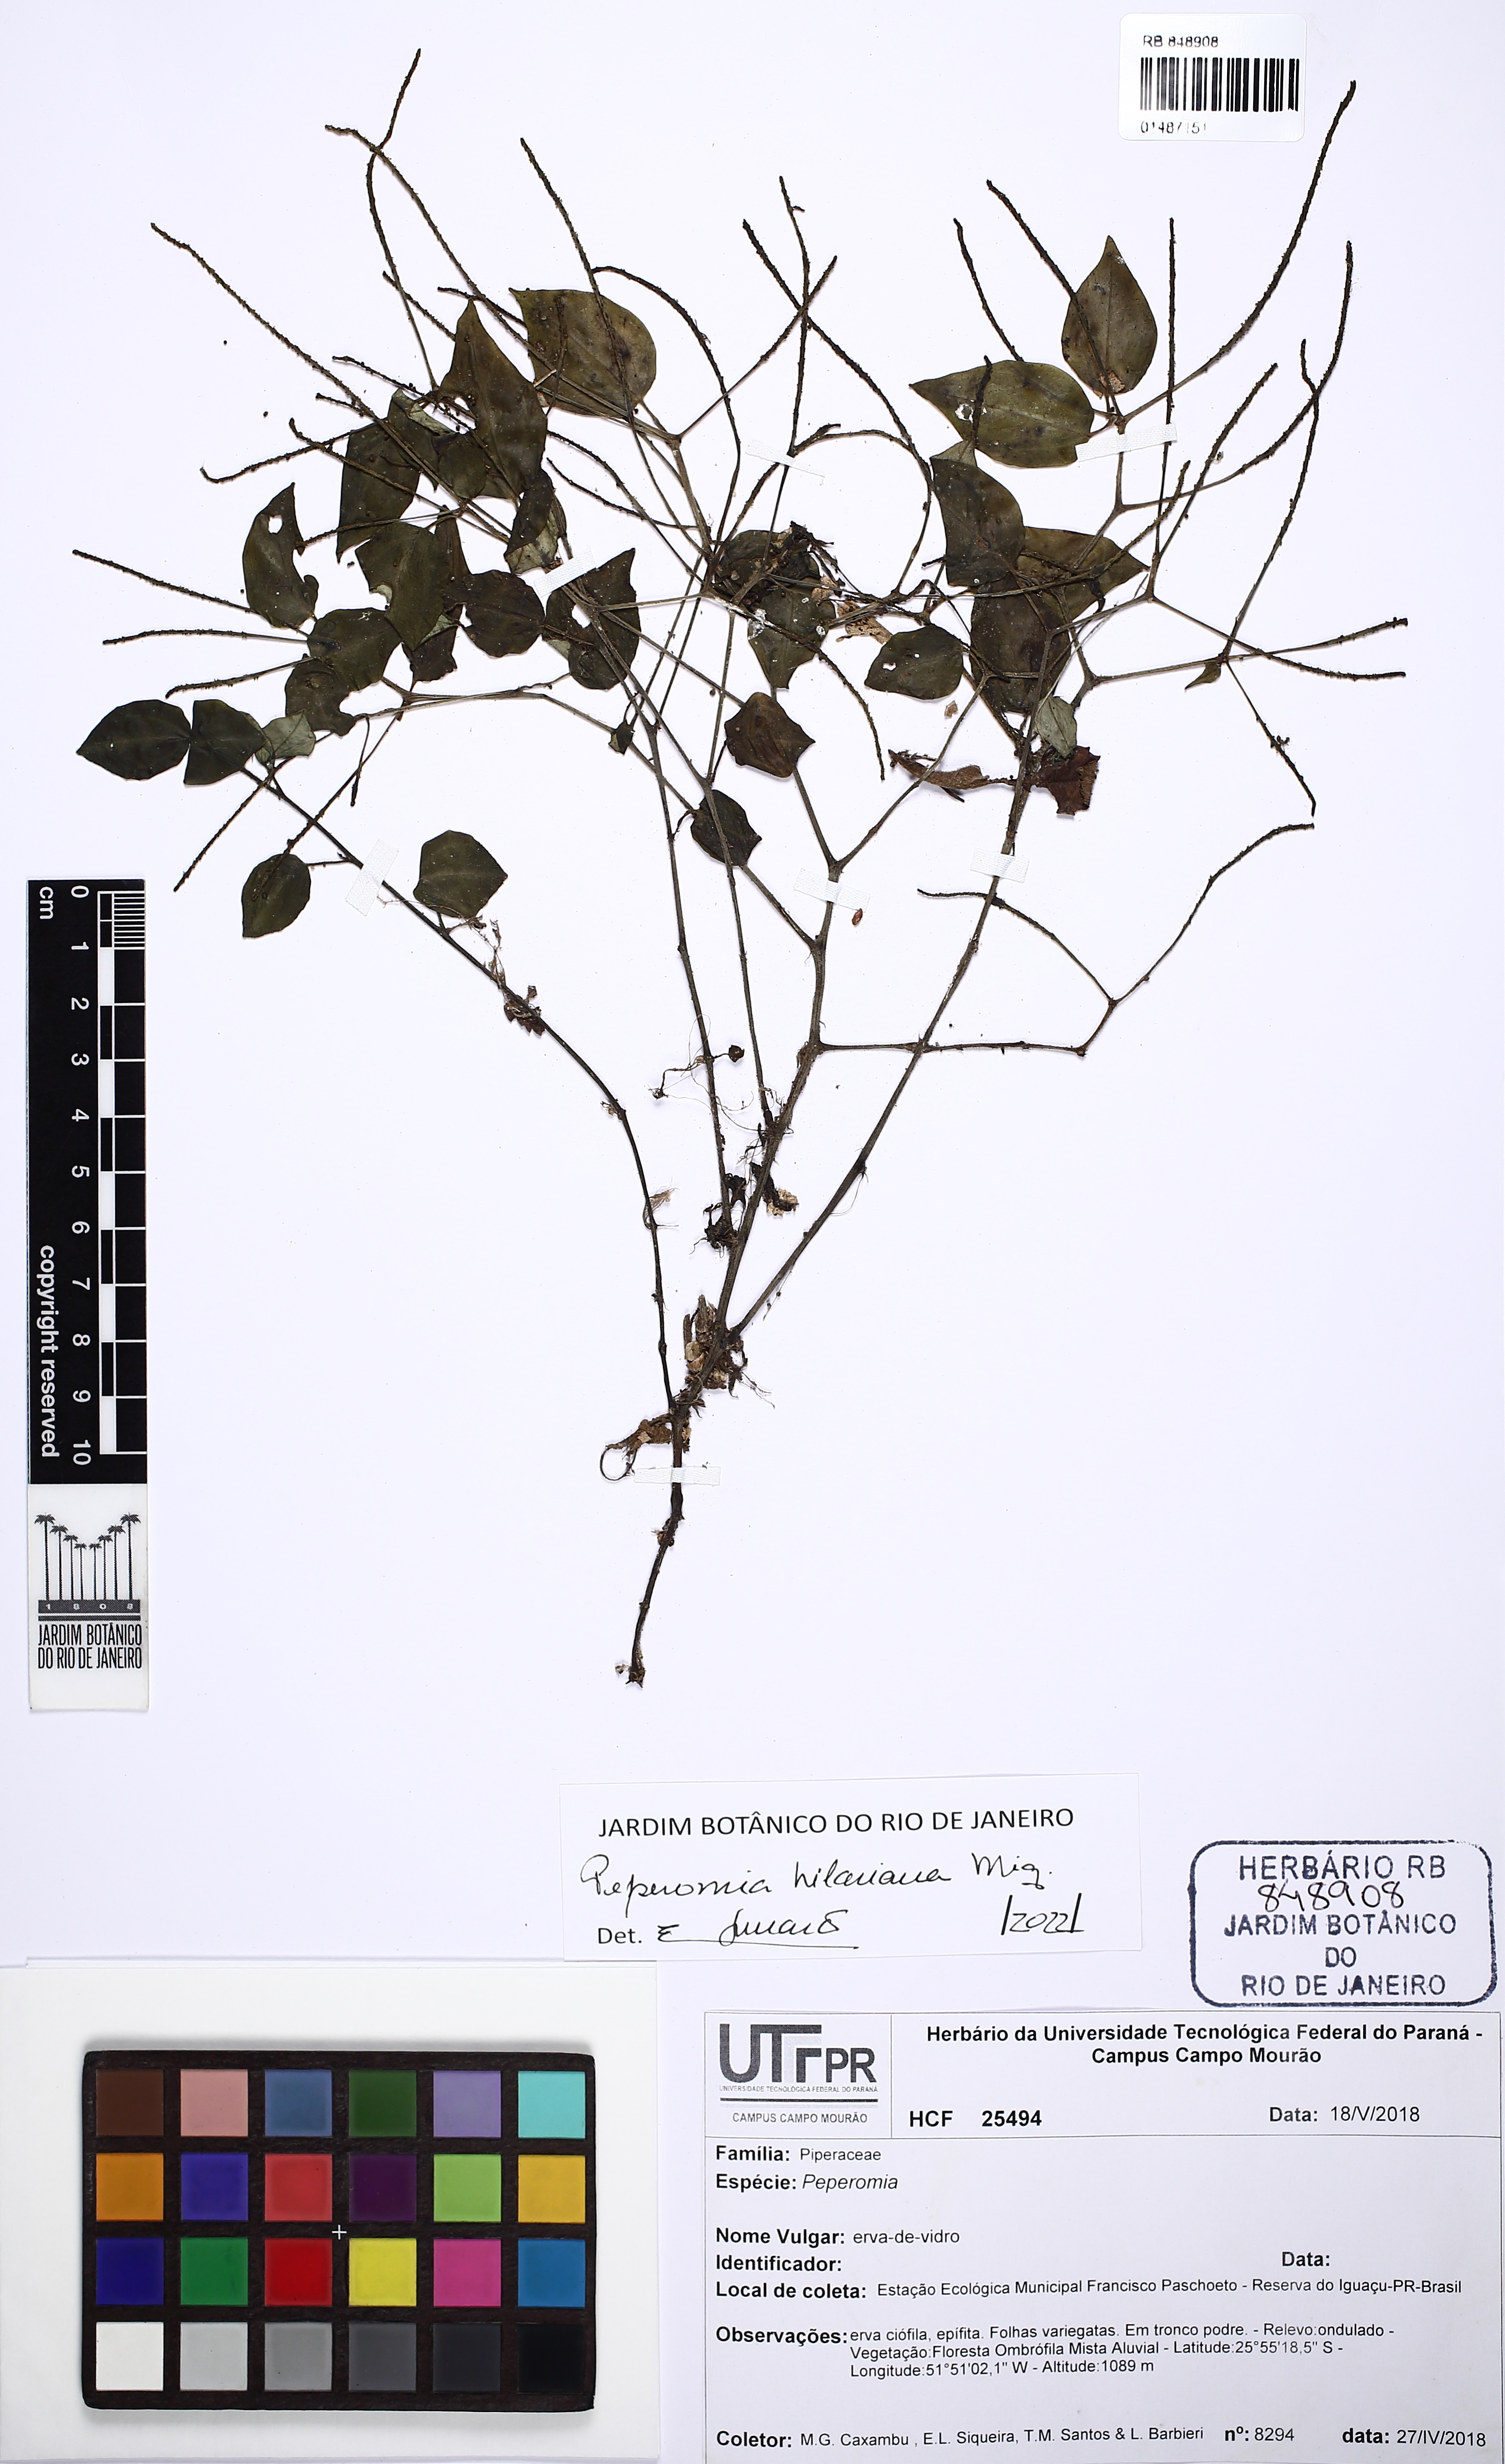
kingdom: Plantae
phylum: Tracheophyta
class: Magnoliopsida
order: Piperales
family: Piperaceae
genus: Peperomia
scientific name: Peperomia hilariana
